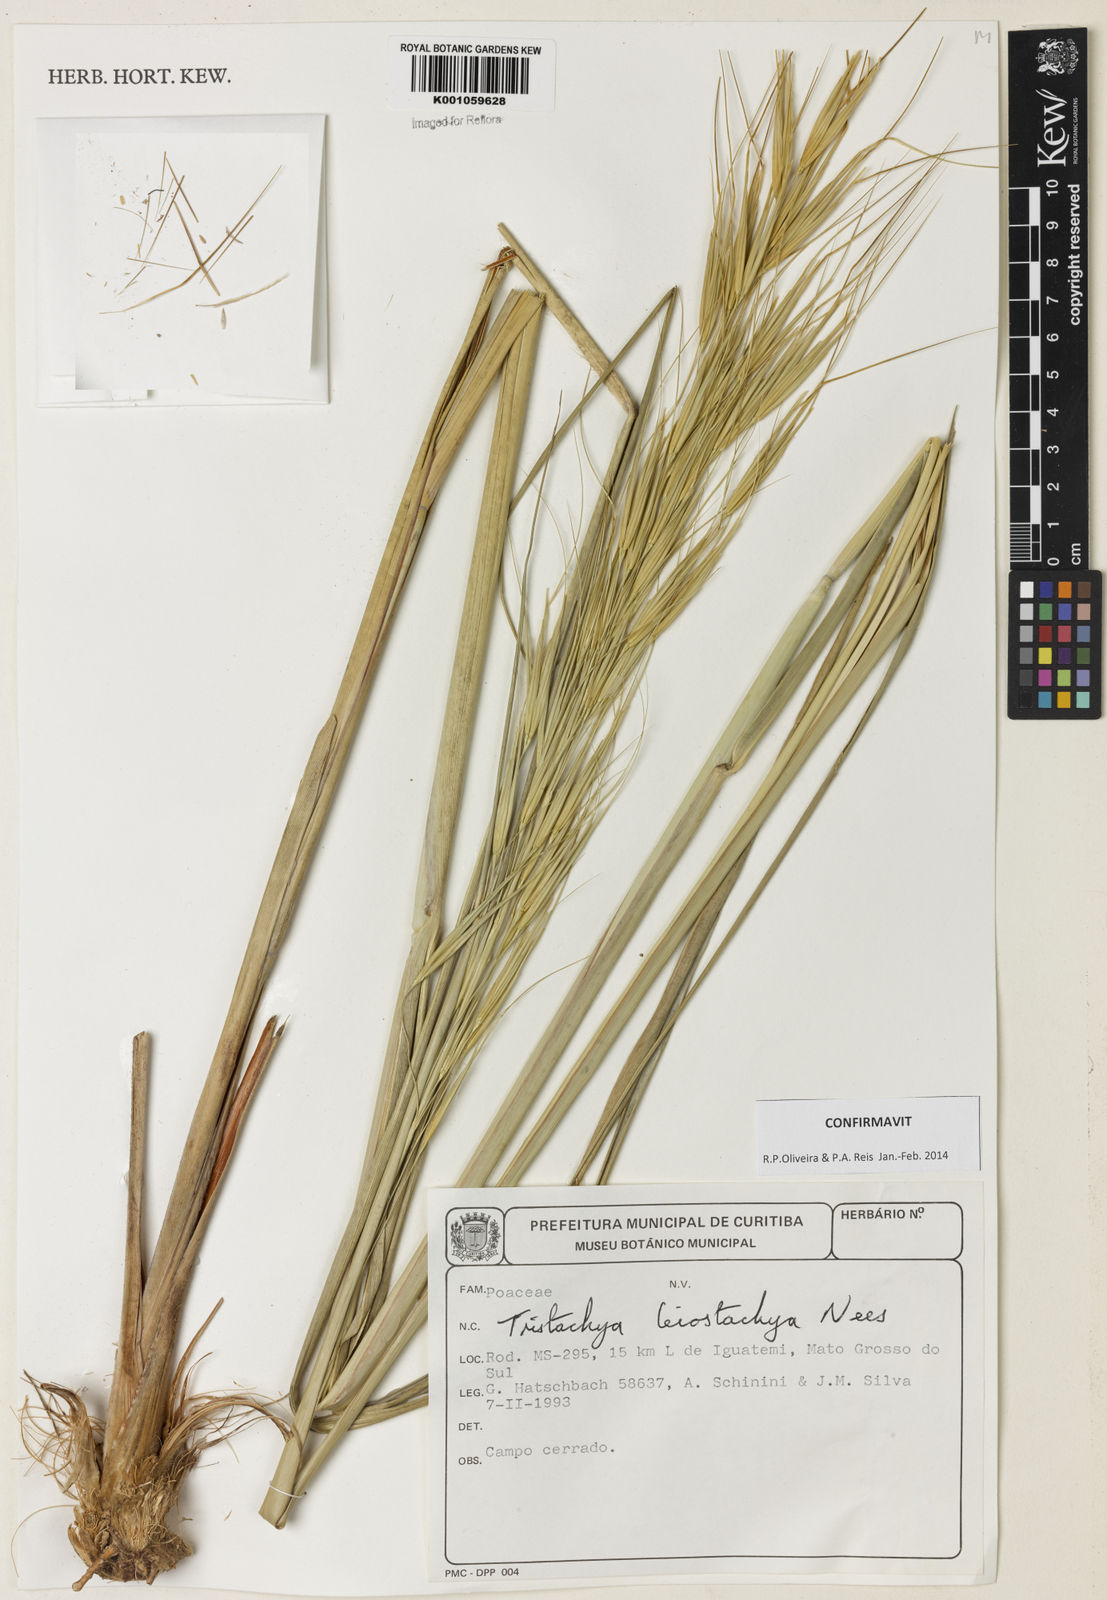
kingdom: Plantae
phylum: Tracheophyta
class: Liliopsida
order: Poales
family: Poaceae
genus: Tristachya
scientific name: Tristachya leiostachya
